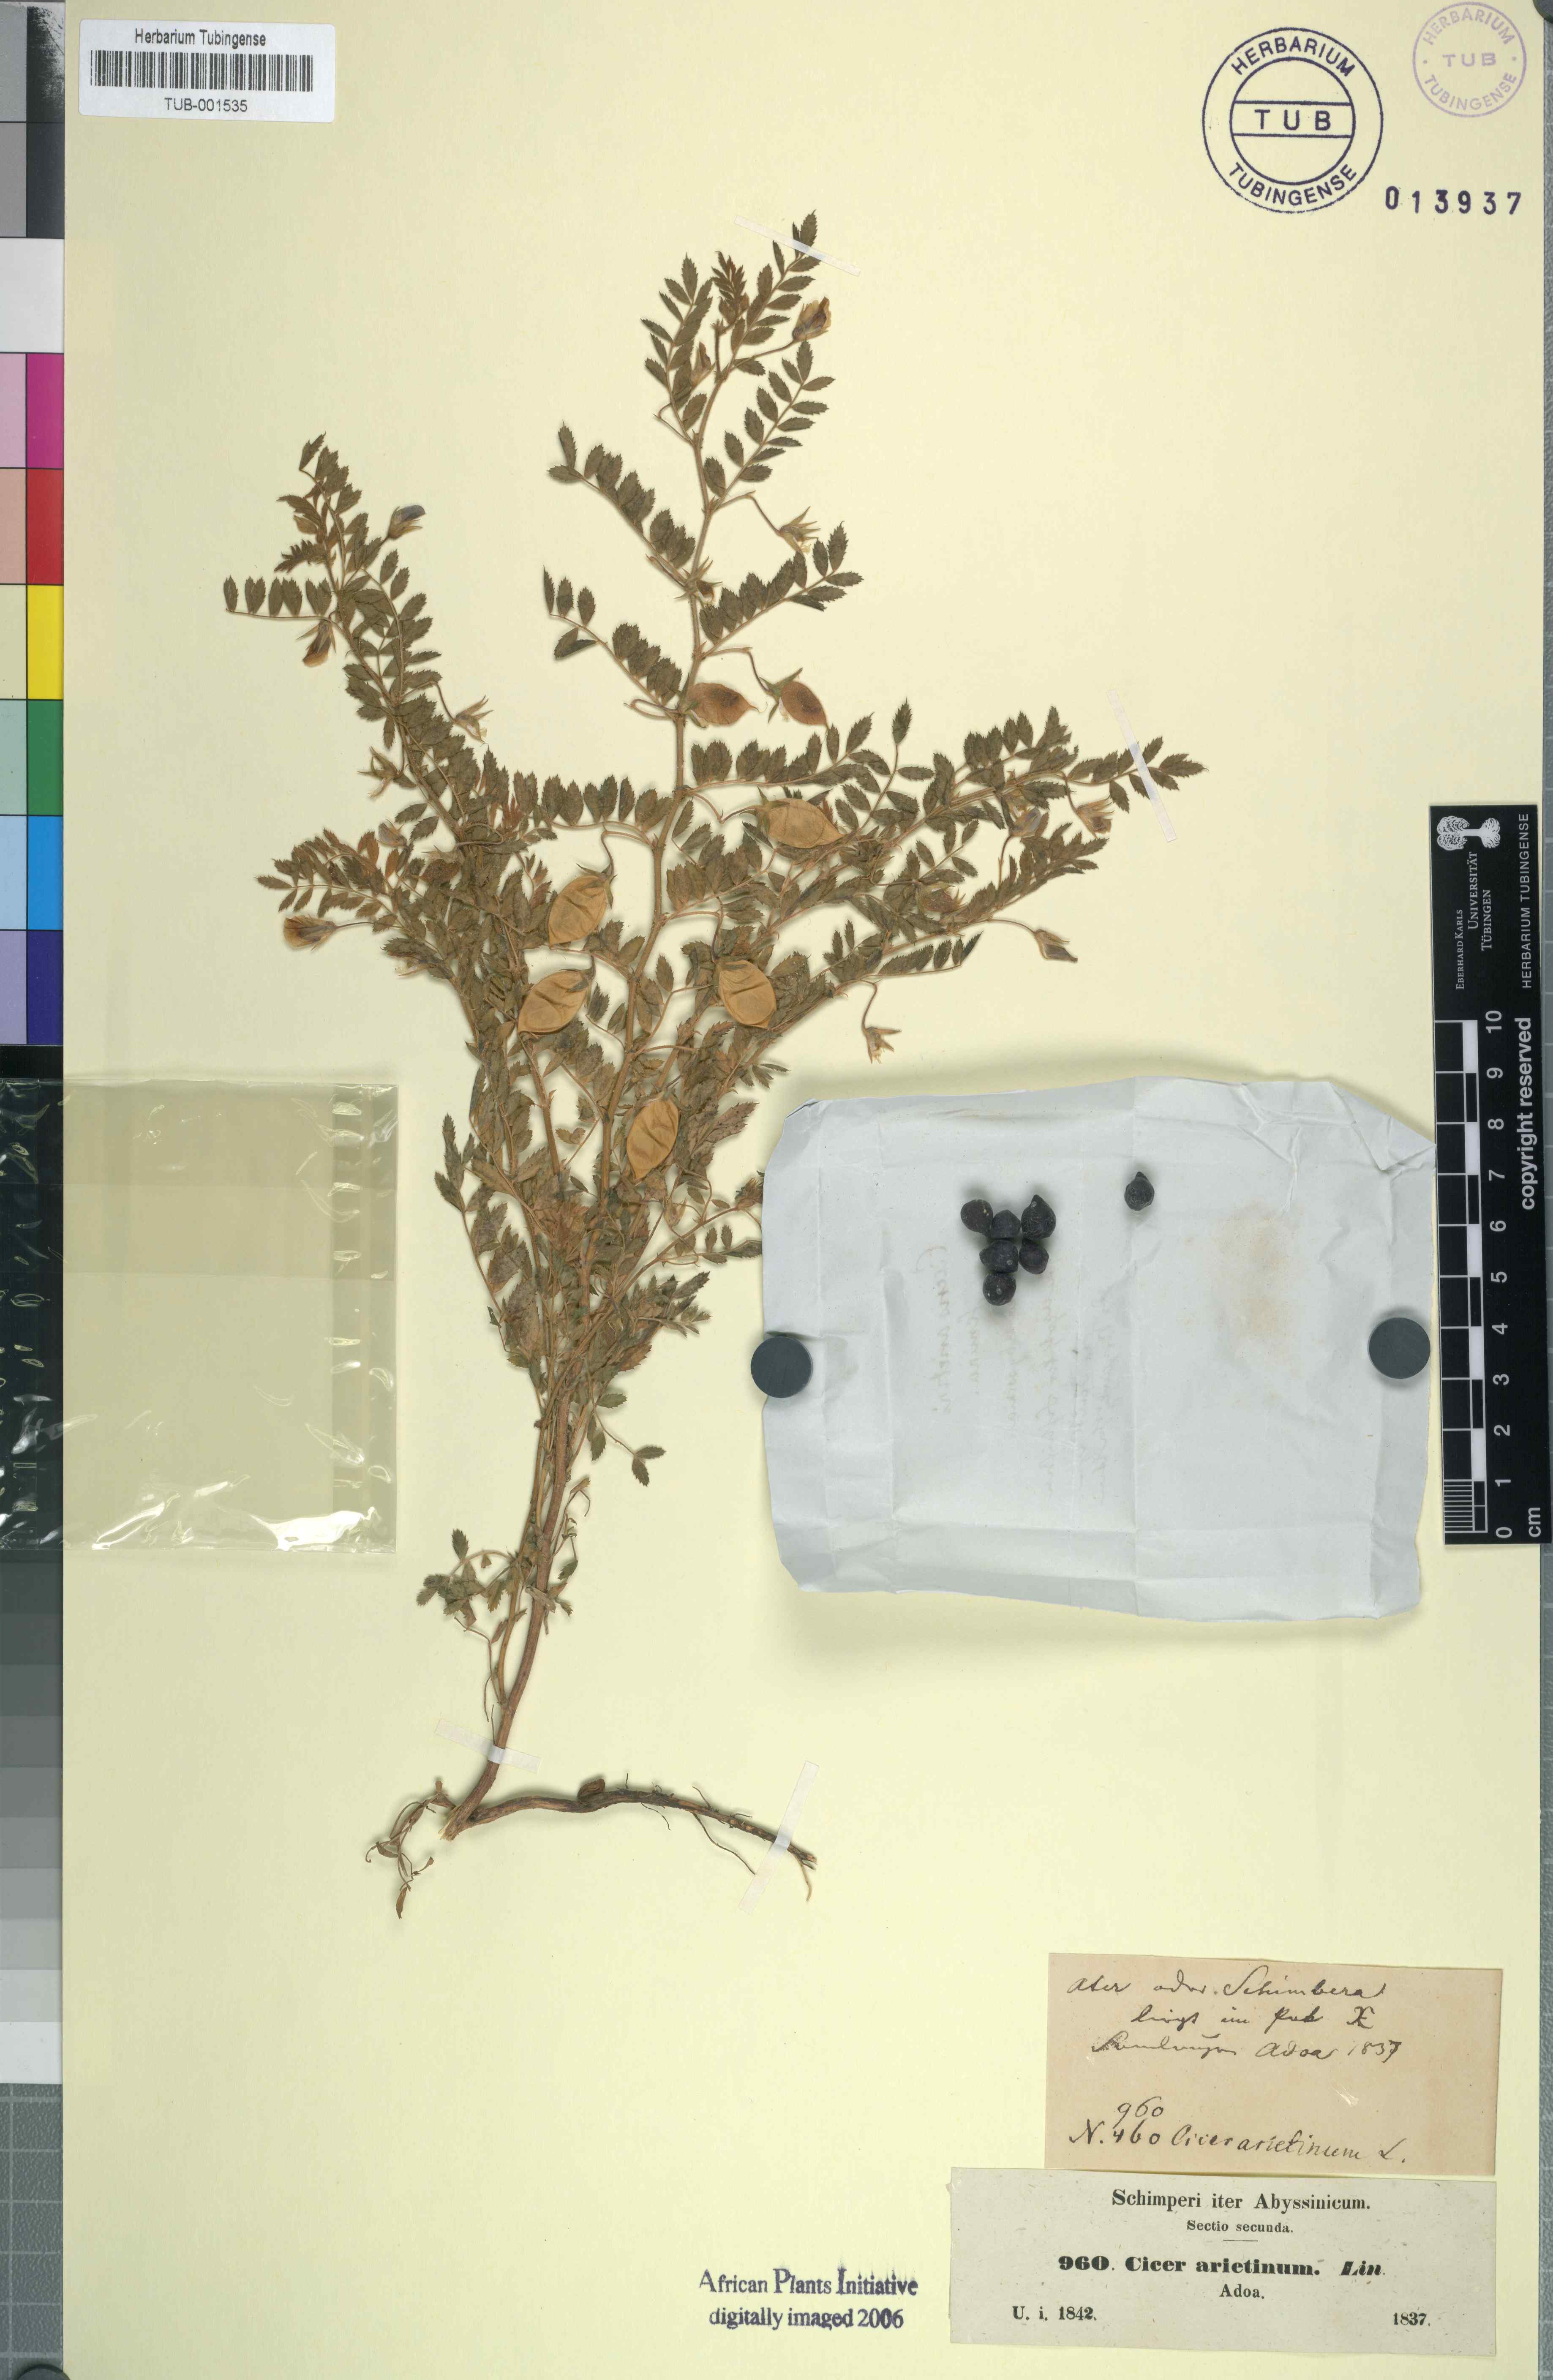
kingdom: Plantae
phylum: Tracheophyta
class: Magnoliopsida
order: Fabales
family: Fabaceae
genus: Cicer
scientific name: Cicer arietinum
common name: Chick pea
